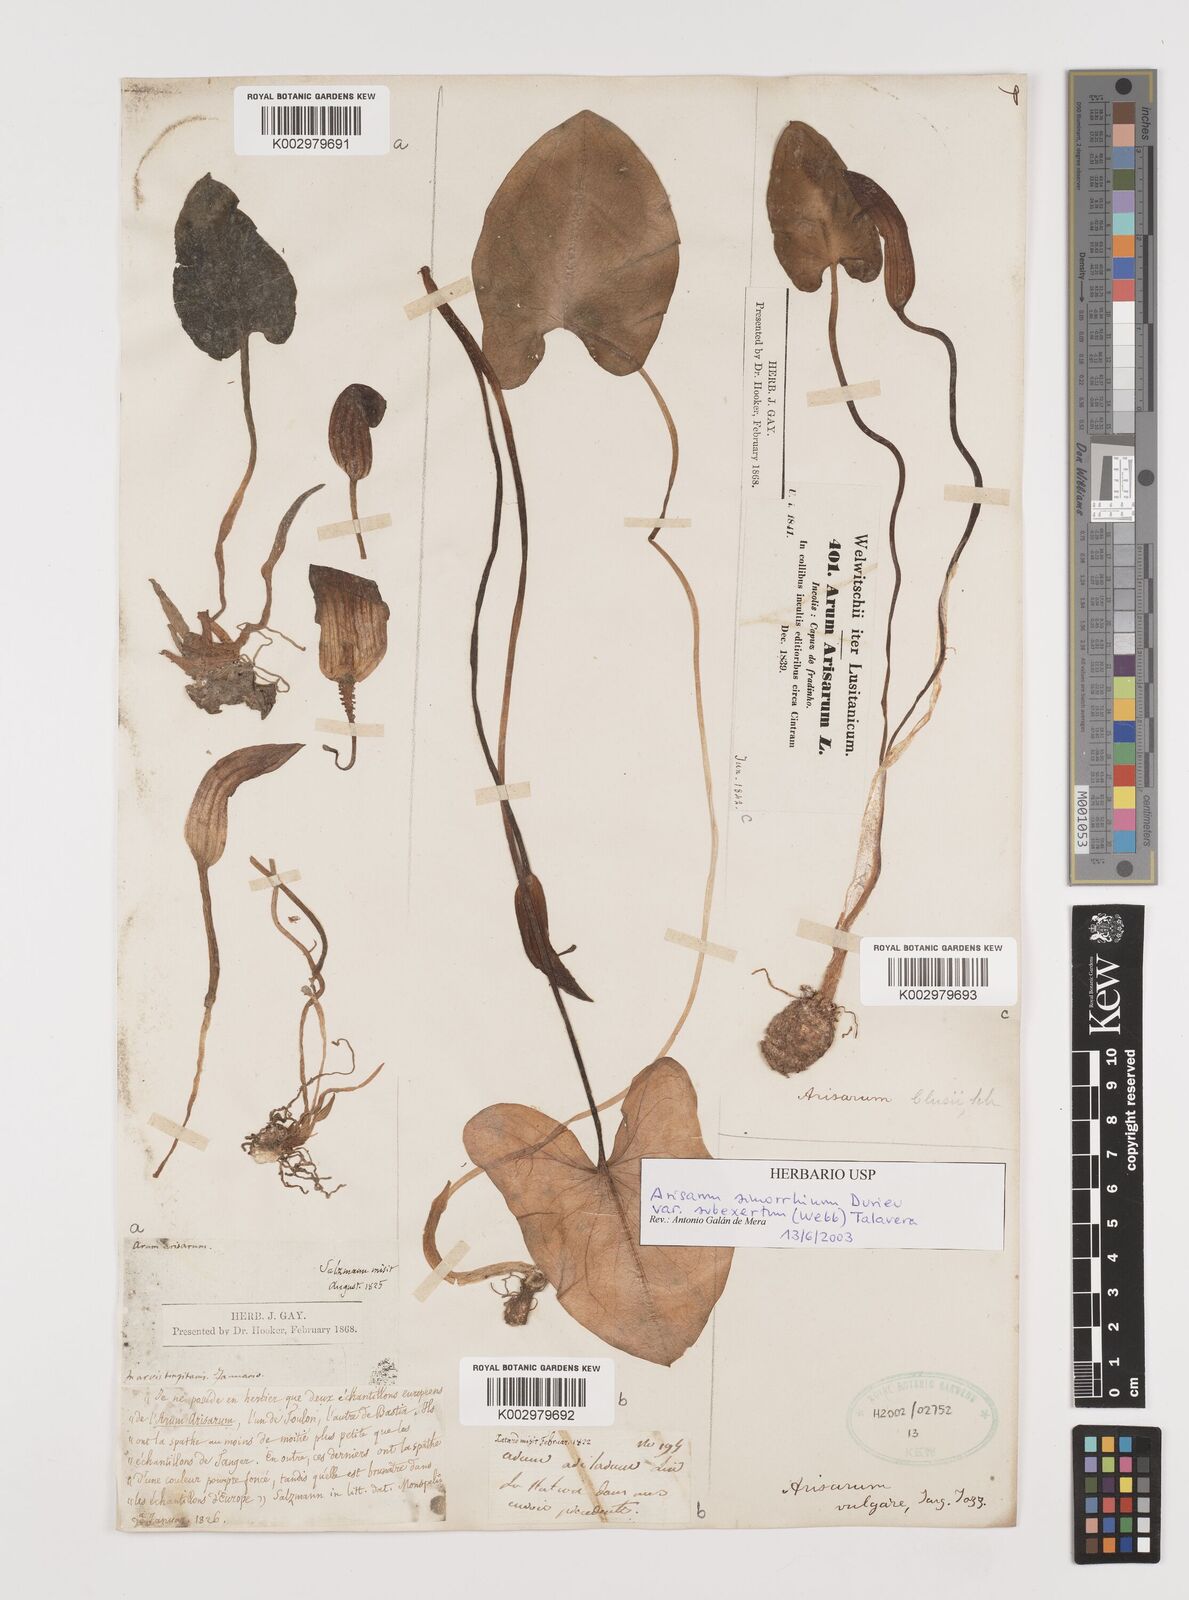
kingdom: Plantae
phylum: Tracheophyta
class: Liliopsida
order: Alismatales
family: Araceae
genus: Arisarum
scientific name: Arisarum simorrhinum
